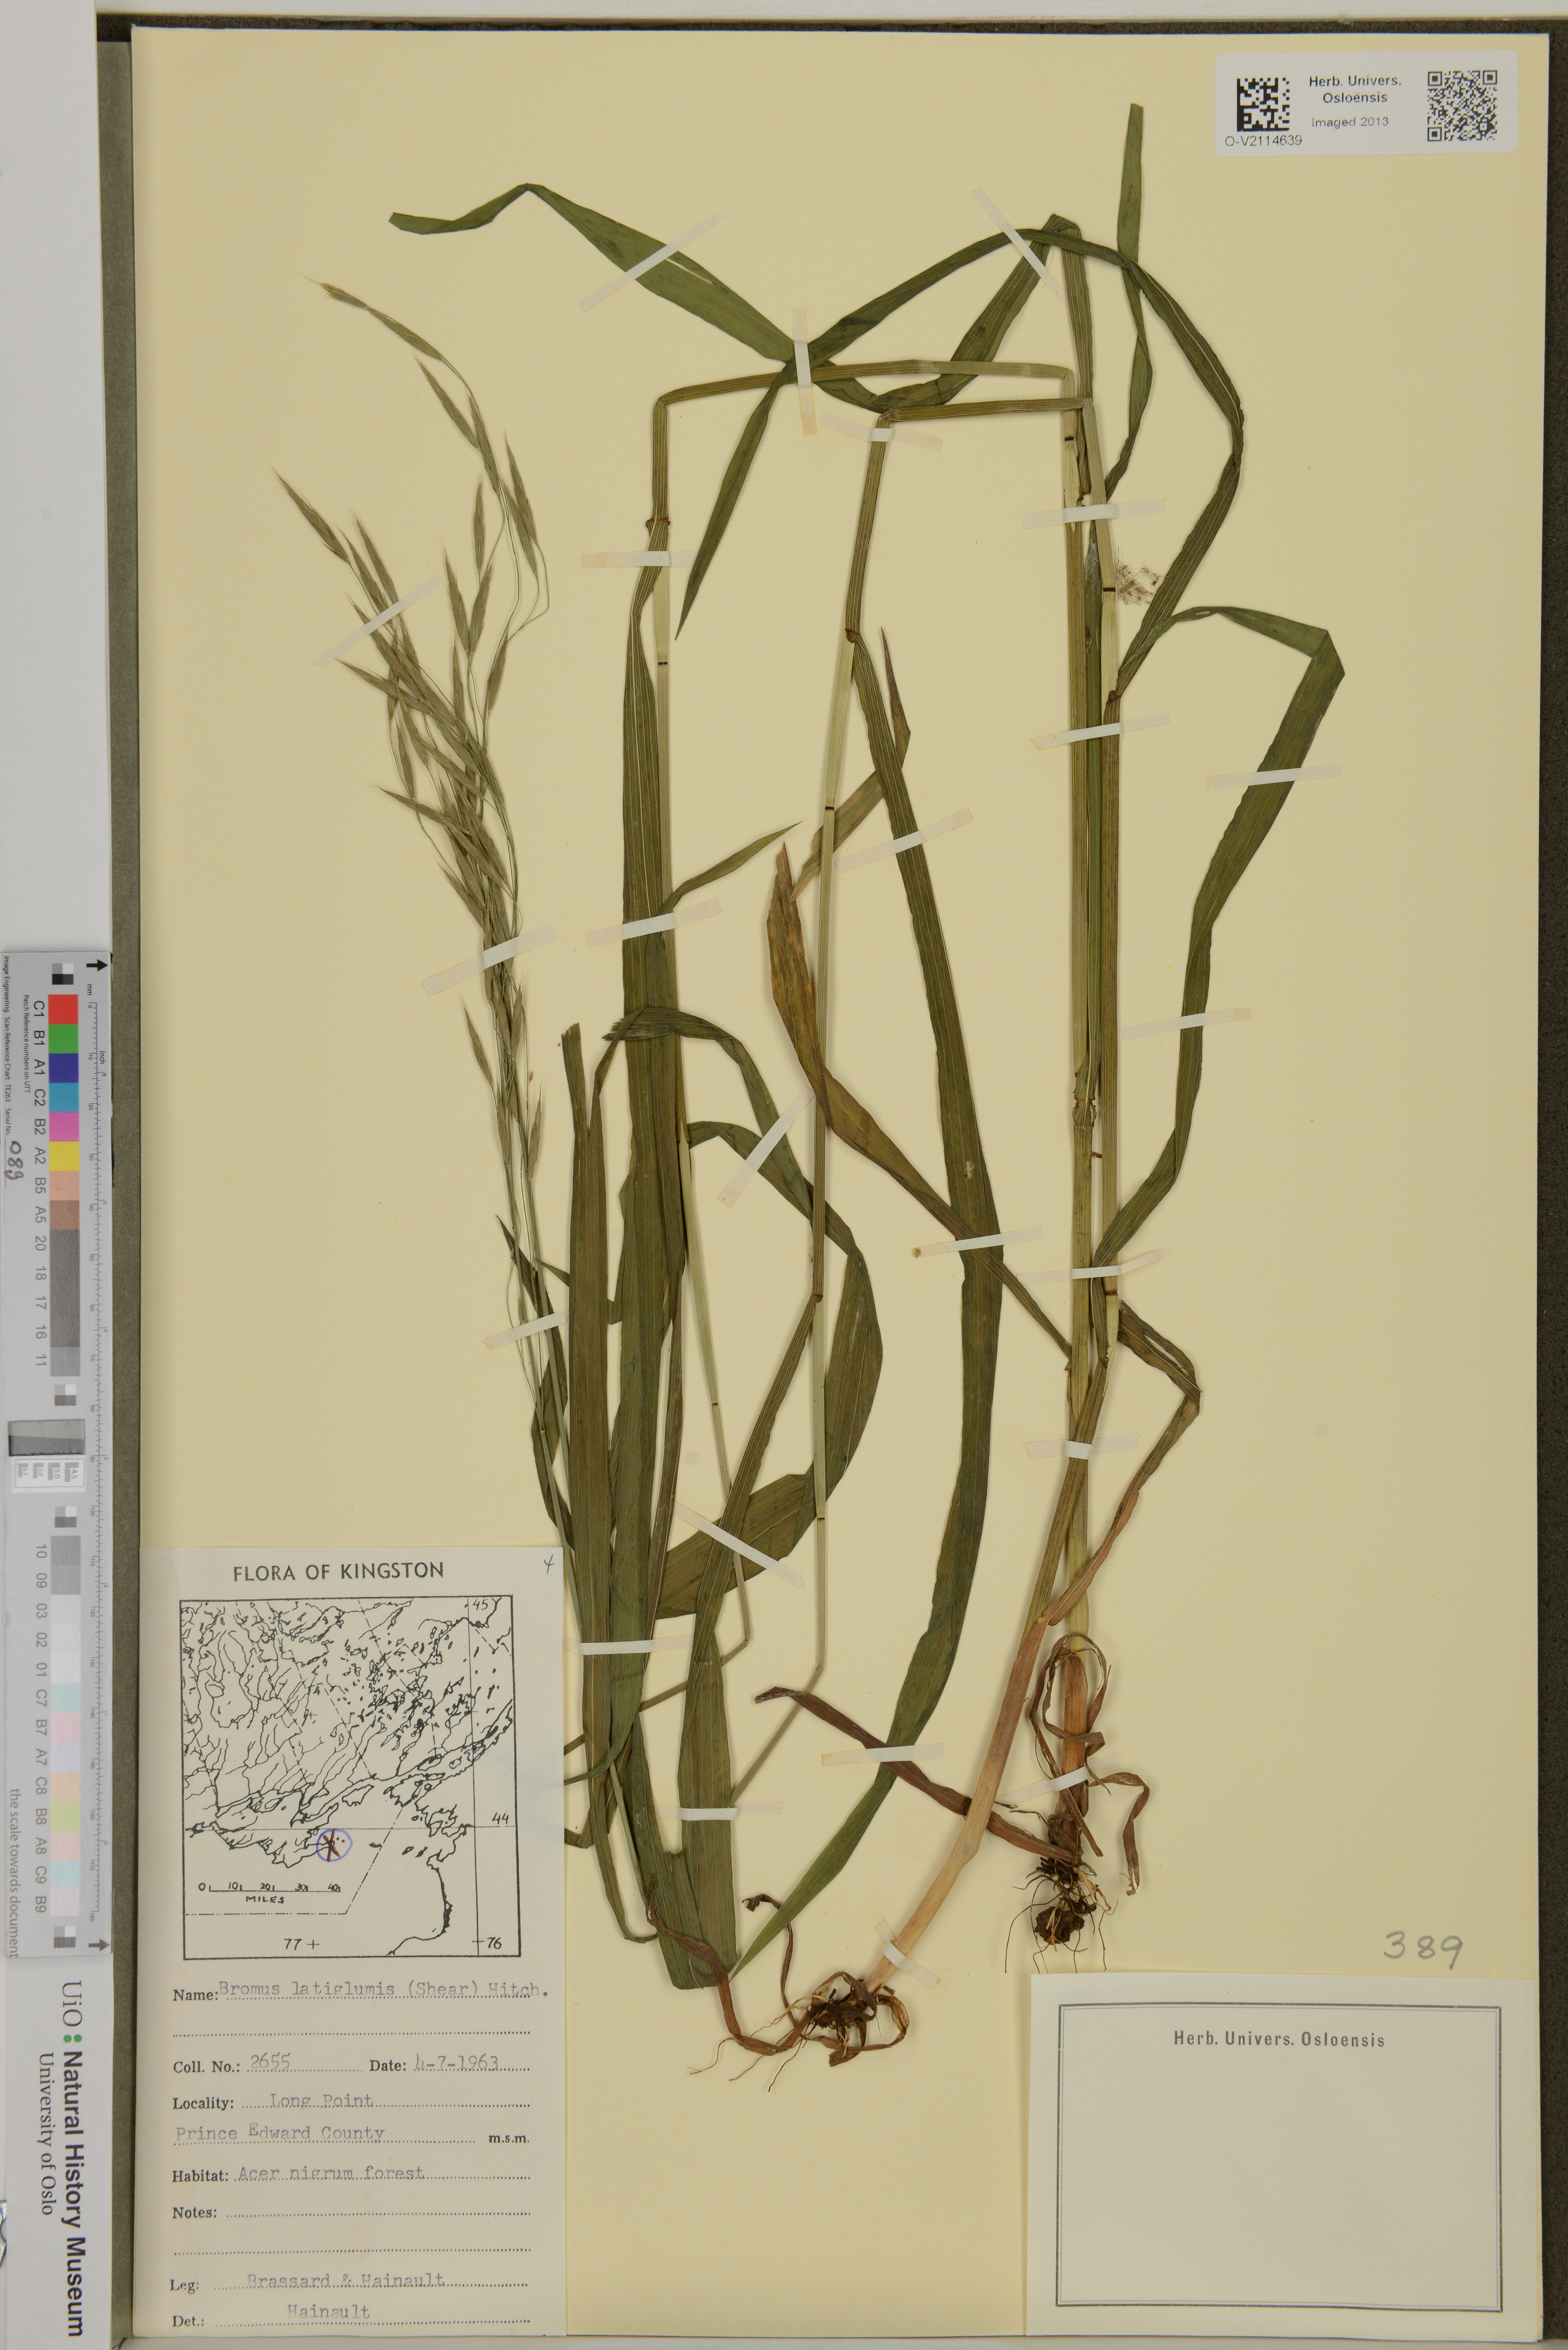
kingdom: Plantae
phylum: Tracheophyta
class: Liliopsida
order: Poales
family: Poaceae
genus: Bromus
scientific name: Bromus latiglumis
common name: Broad-glumed brome
